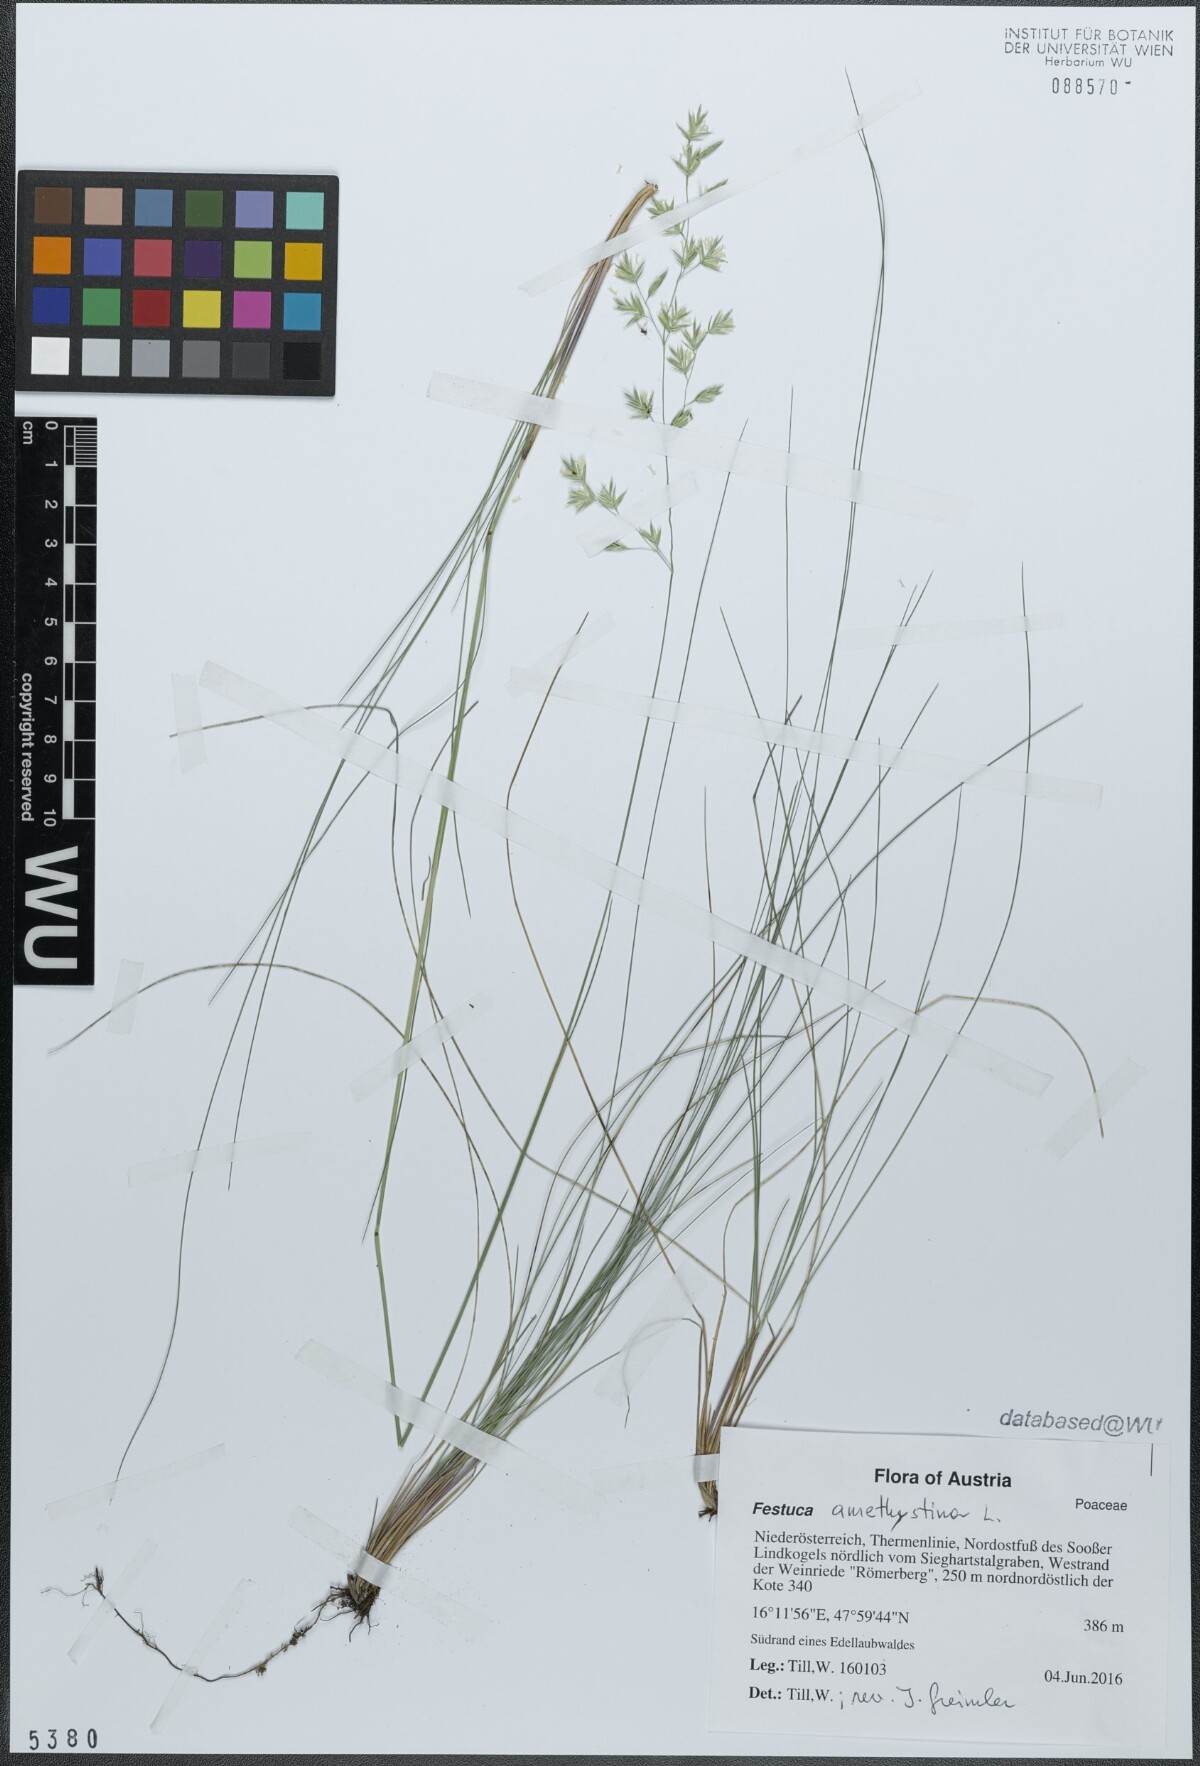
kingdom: Plantae
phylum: Tracheophyta
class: Liliopsida
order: Poales
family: Poaceae
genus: Festuca
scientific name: Festuca amethystina
